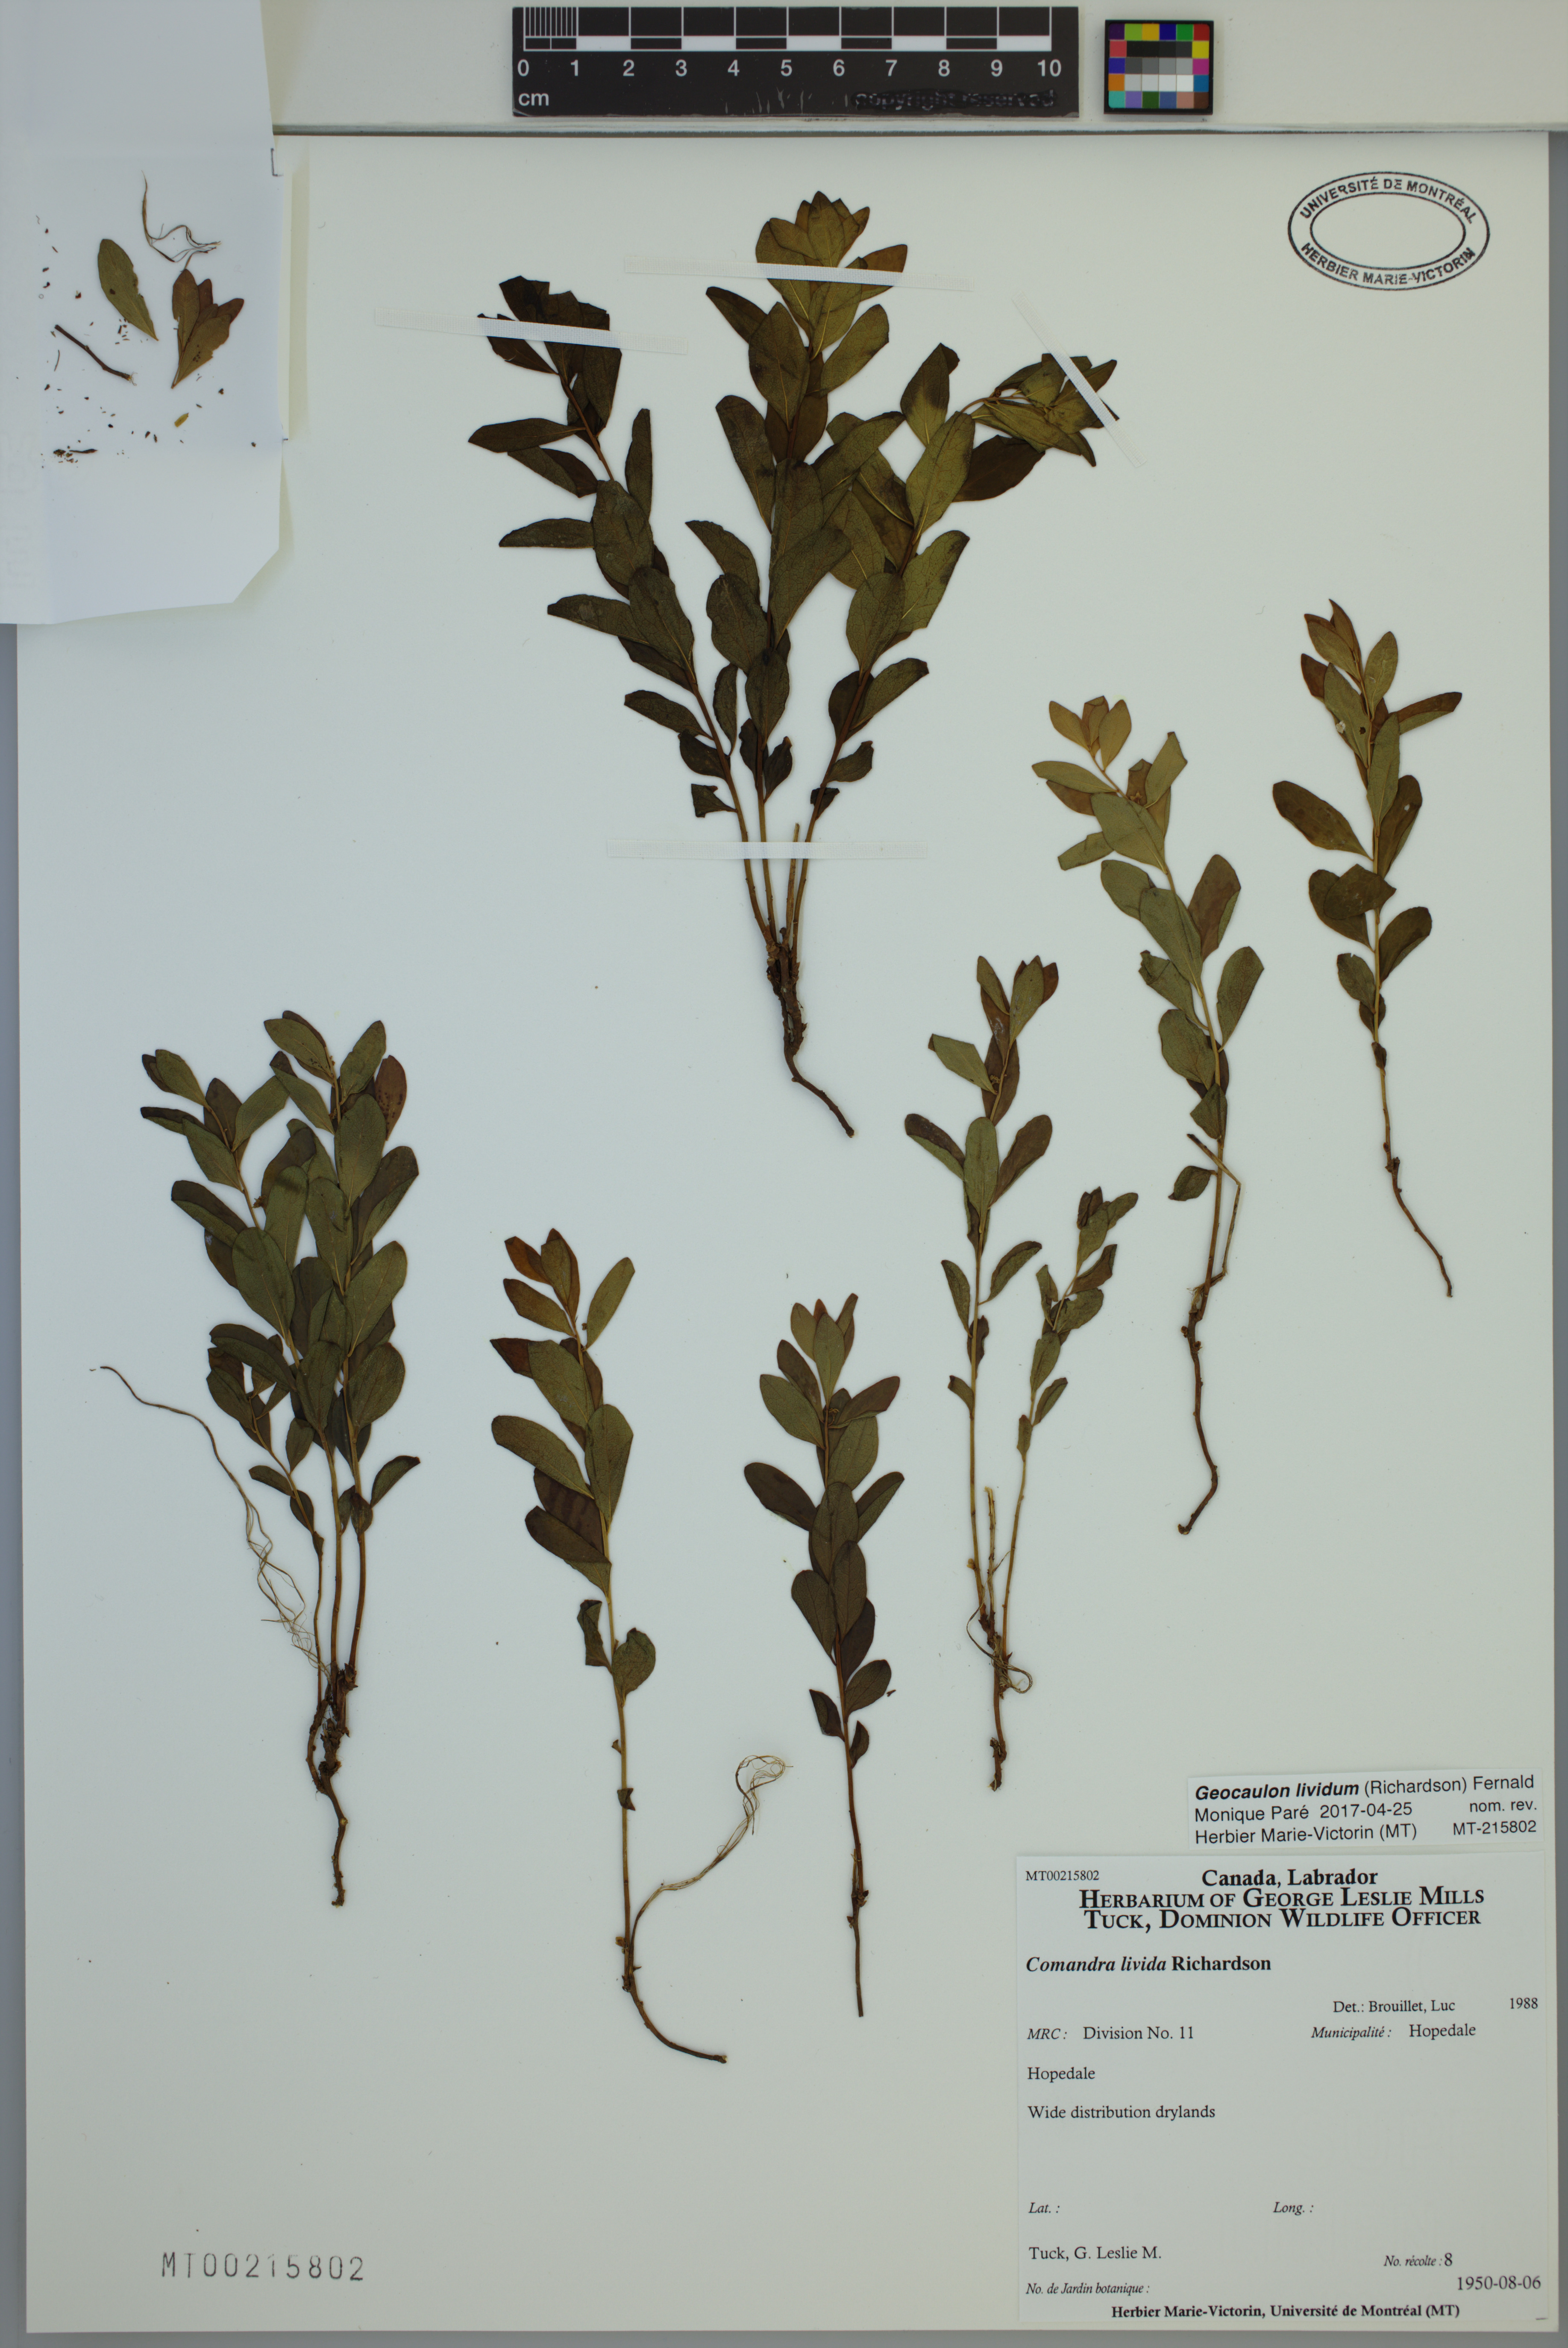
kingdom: Plantae
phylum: Tracheophyta
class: Magnoliopsida
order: Santalales
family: Comandraceae
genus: Geocaulon
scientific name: Geocaulon lividum
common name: Earthberry
